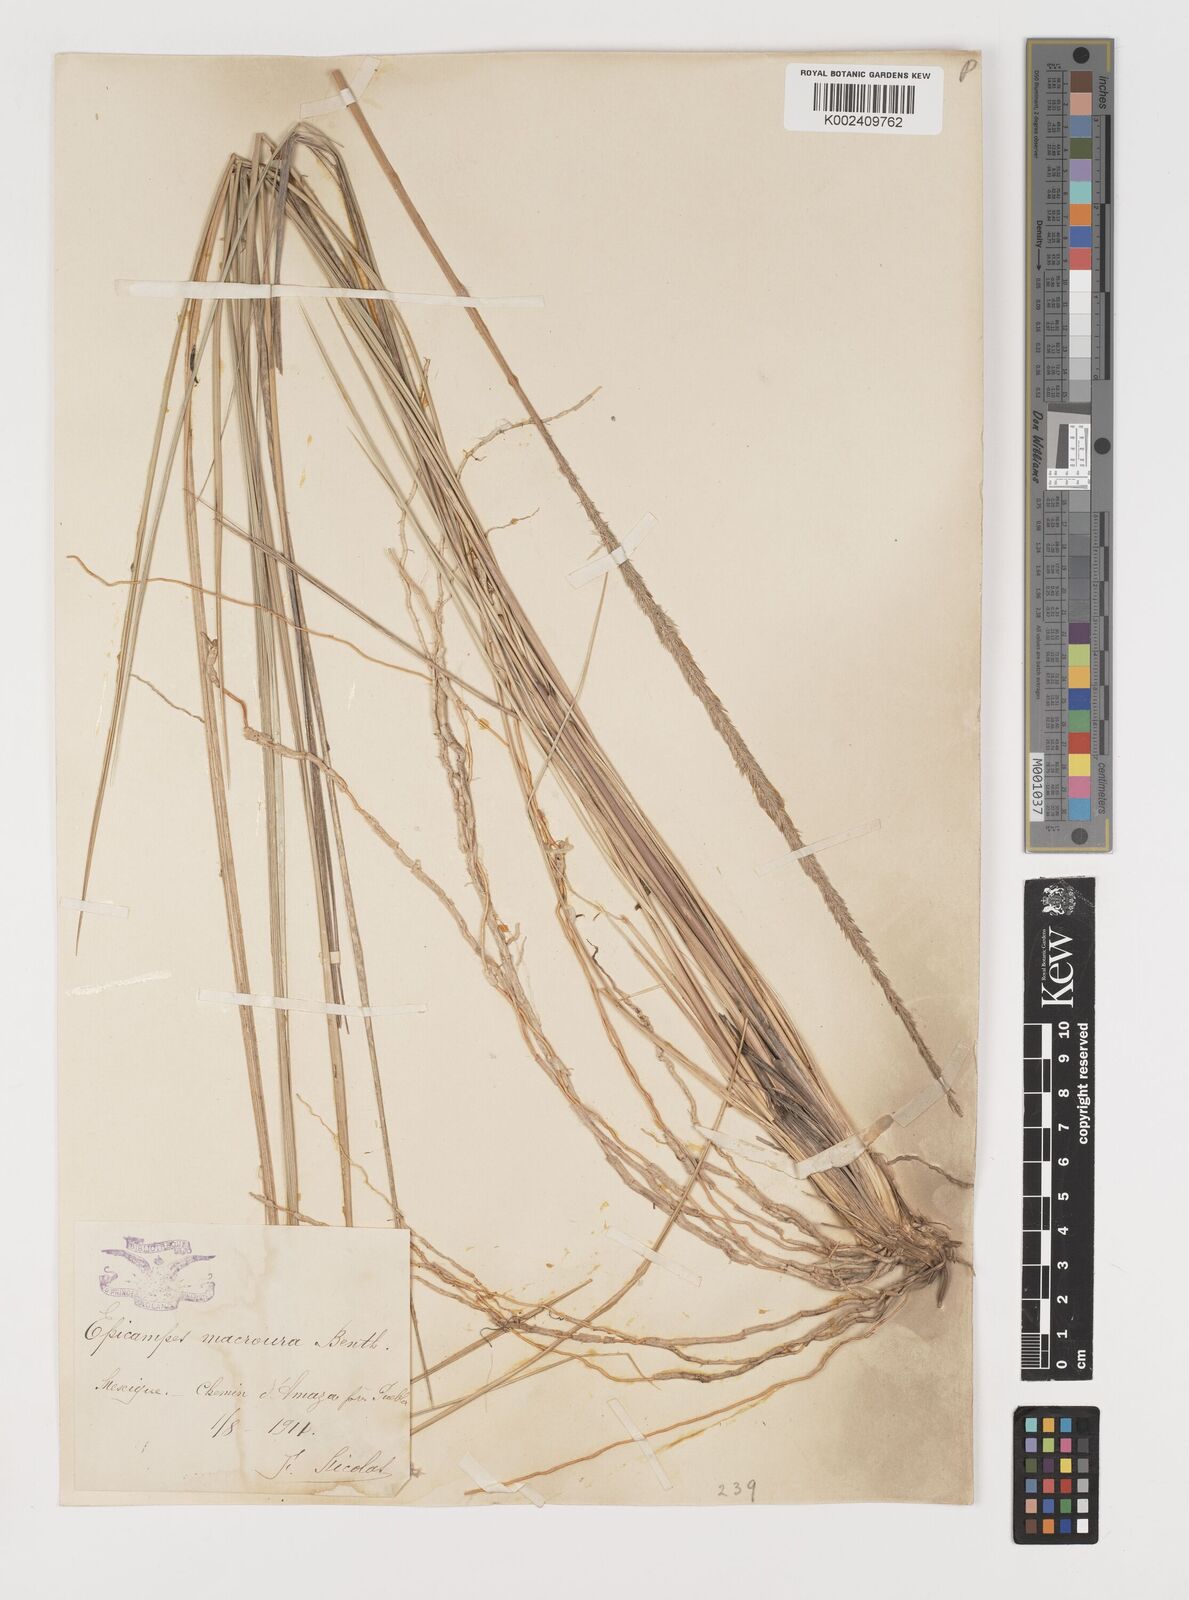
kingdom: Plantae
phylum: Tracheophyta
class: Liliopsida
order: Poales
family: Poaceae
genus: Muhlenbergia
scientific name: Muhlenbergia macroura
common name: Mexican broomroot
